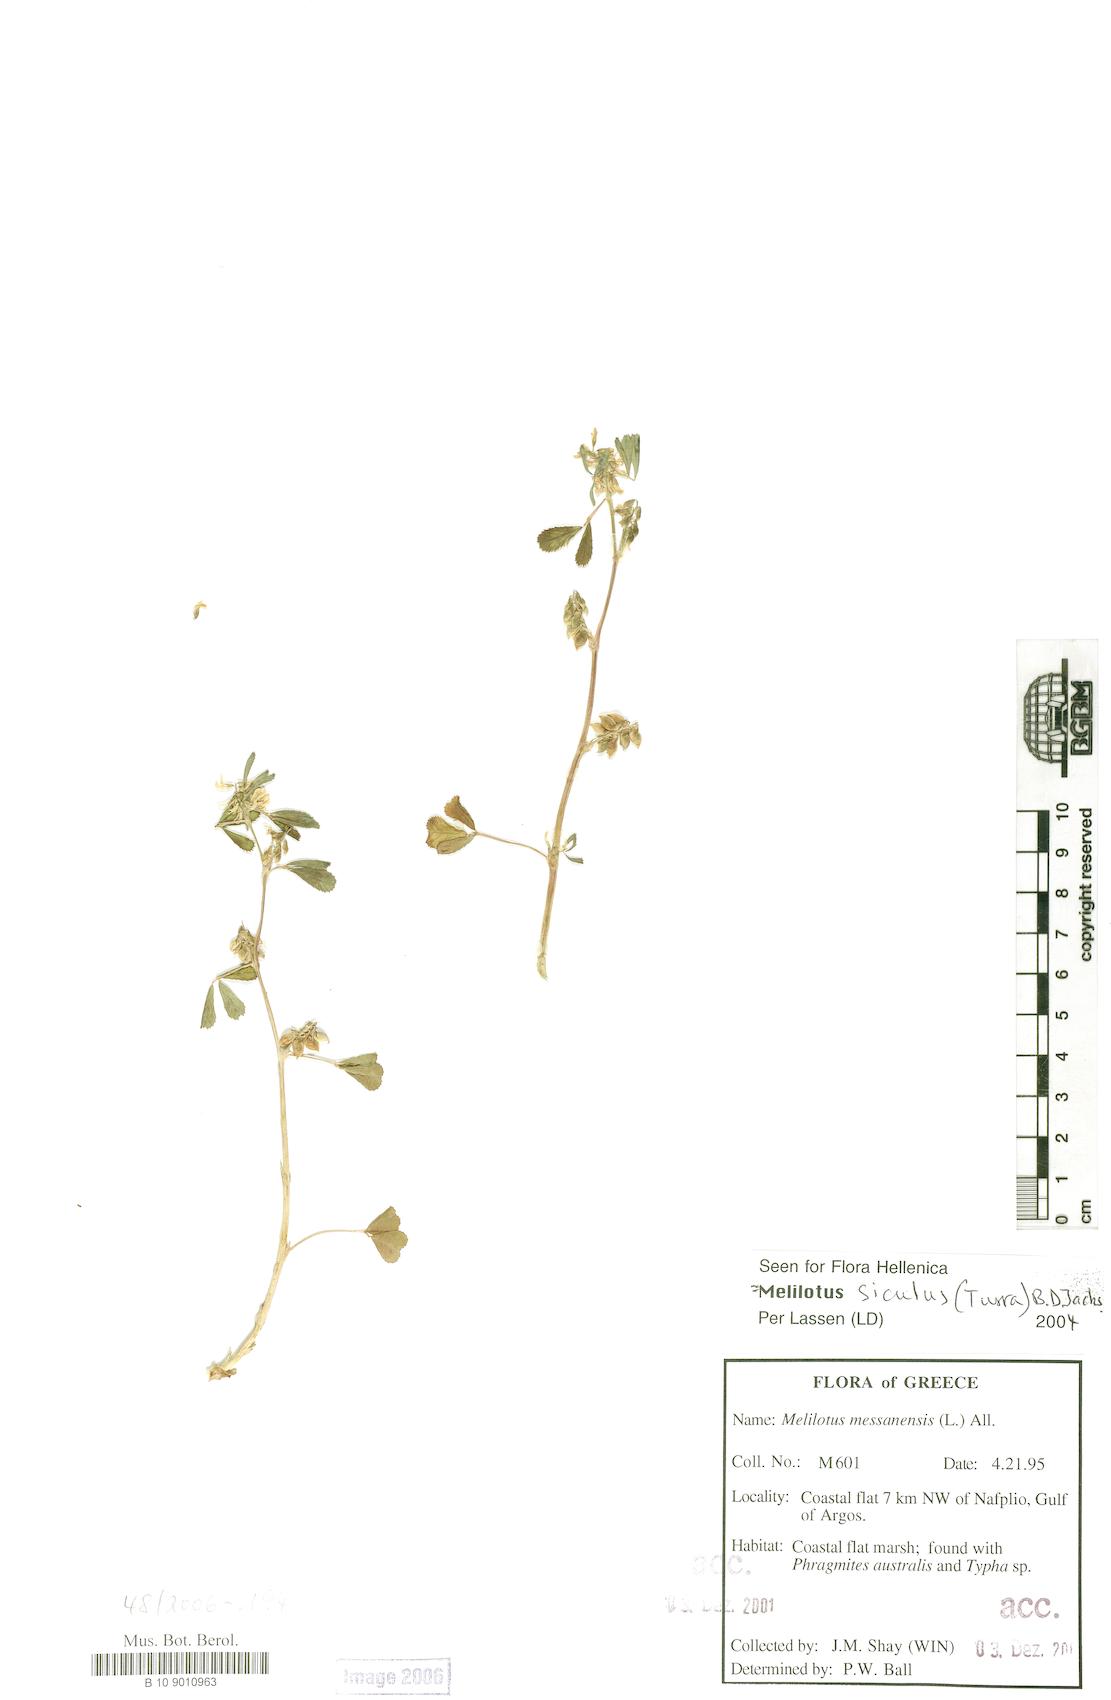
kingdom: Plantae
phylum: Tracheophyta
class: Magnoliopsida
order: Fabales
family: Fabaceae
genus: Melilotus
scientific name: Melilotus siculus
